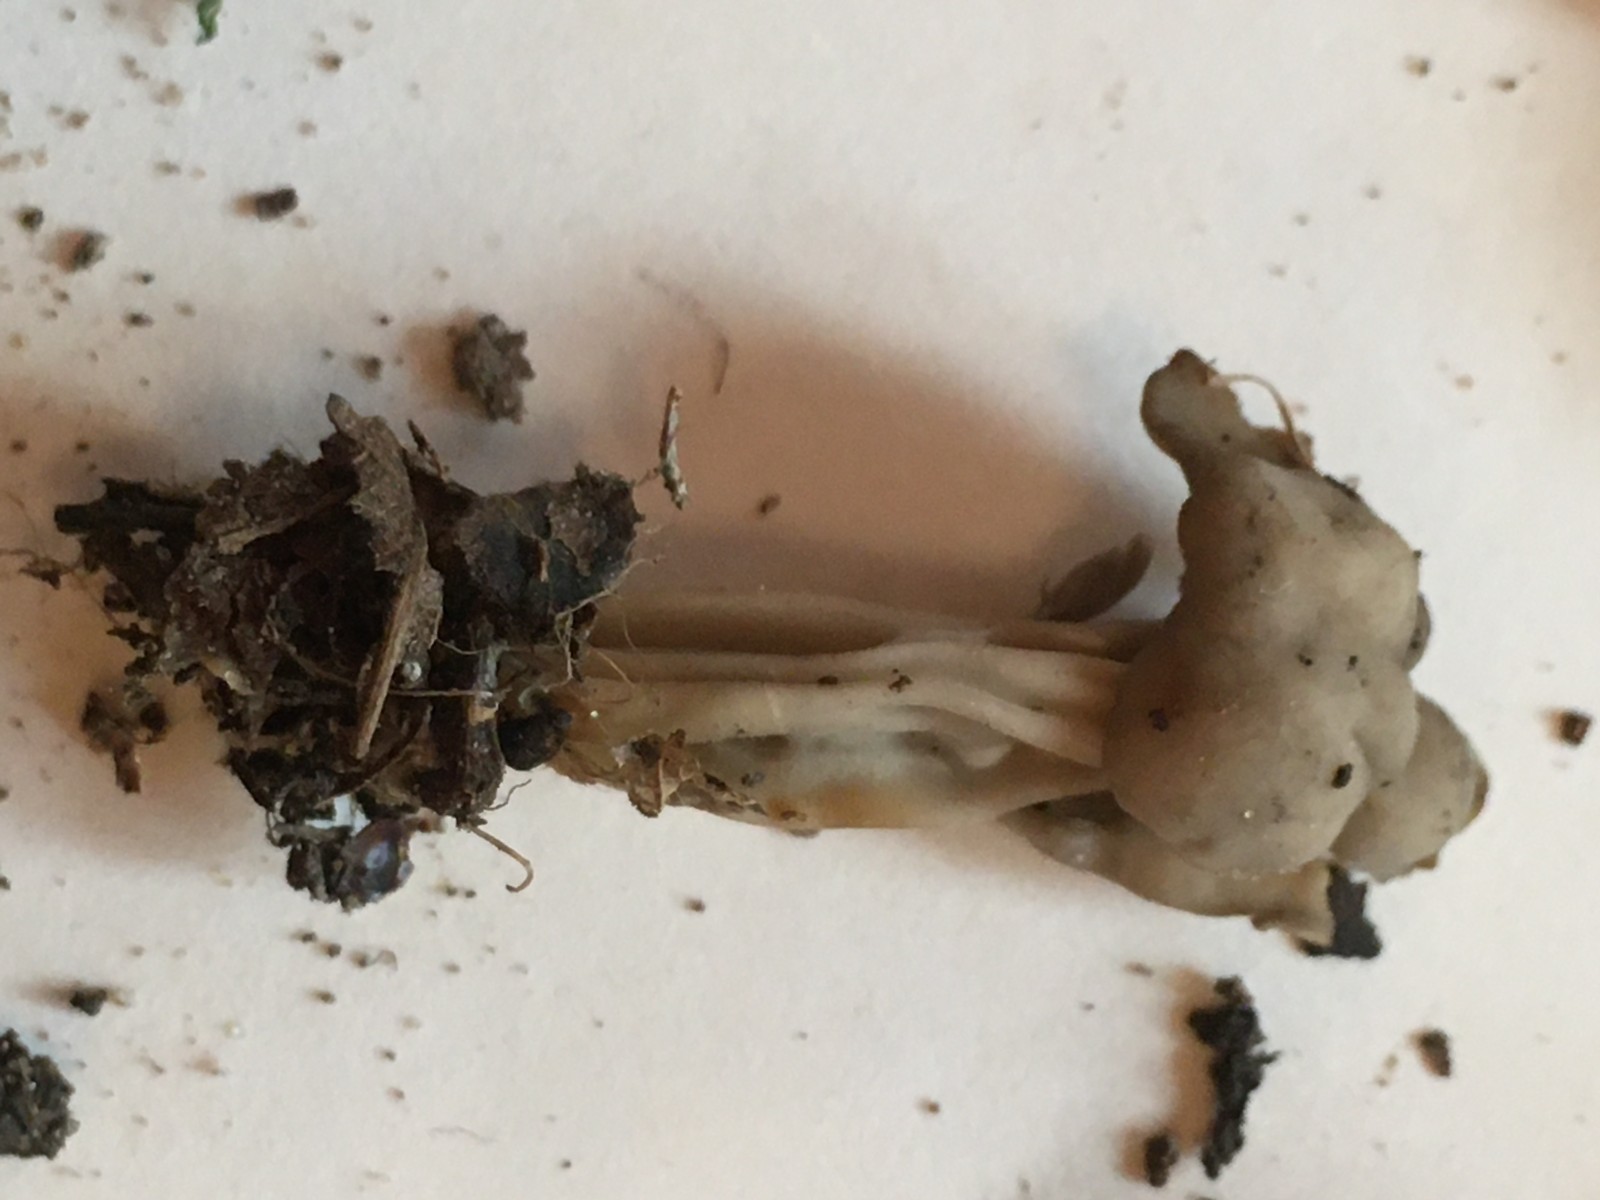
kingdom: Fungi
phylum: Ascomycota
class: Pezizomycetes
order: Pezizales
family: Helvellaceae
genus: Helvella
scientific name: Helvella lacunosa
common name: grubet foldhat
